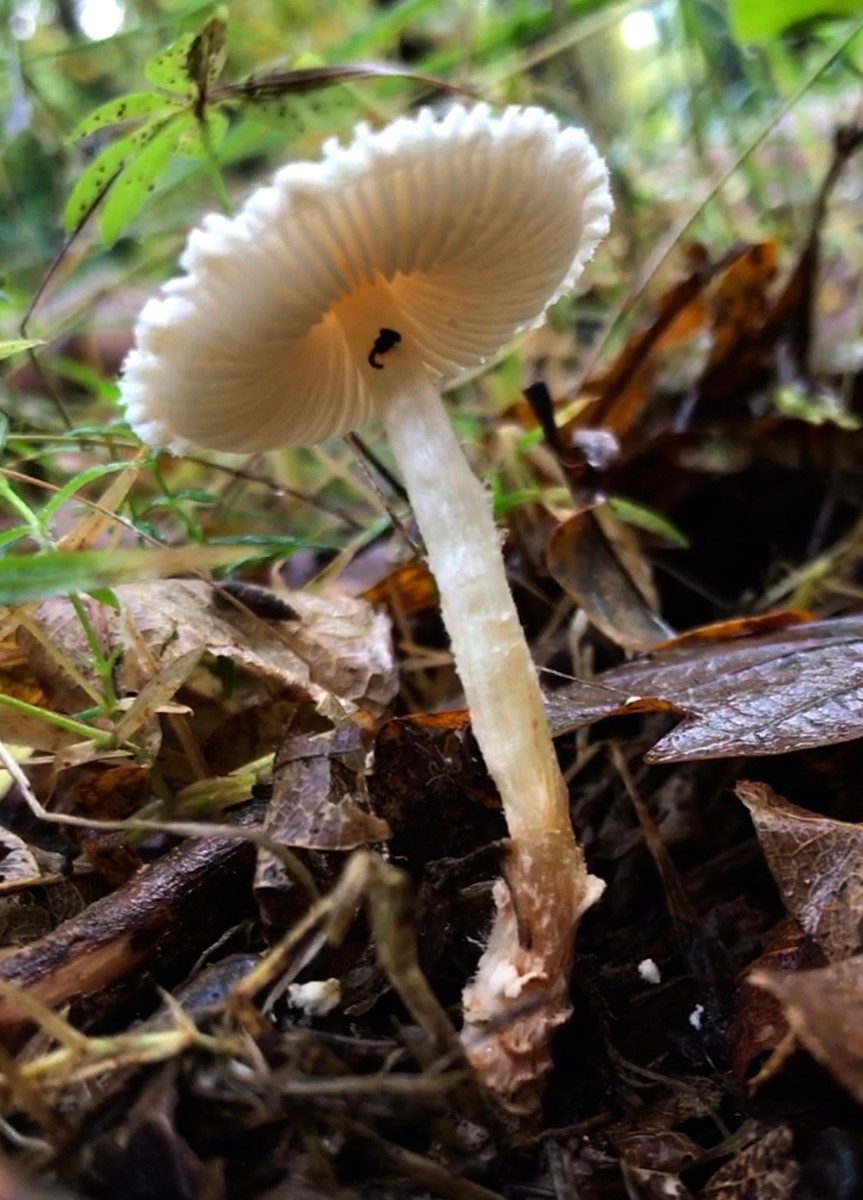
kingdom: Fungi
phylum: Basidiomycota
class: Agaricomycetes
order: Agaricales
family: Agaricaceae
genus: Lepiota
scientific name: Lepiota magnispora
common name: gulfnugget parasolhat
